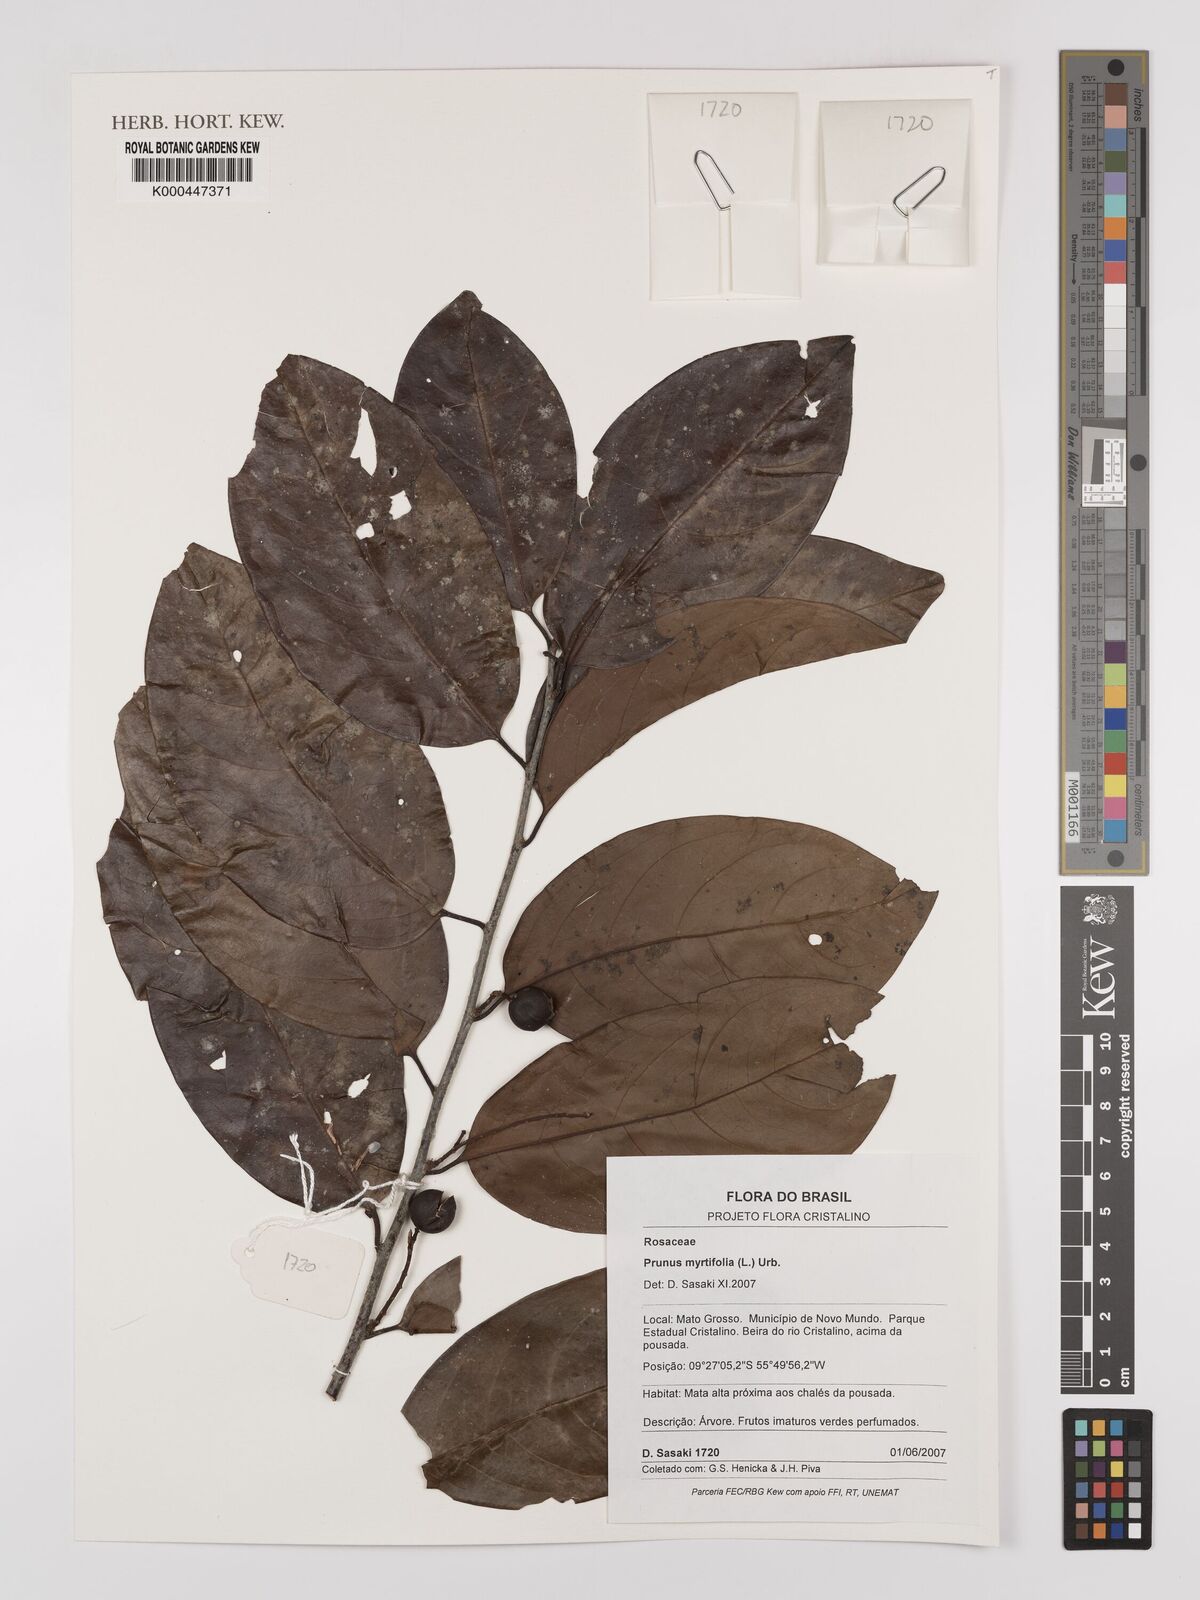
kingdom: Plantae
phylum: Tracheophyta
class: Magnoliopsida
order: Rosales
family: Rosaceae
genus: Prunus
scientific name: Prunus myrtifolia
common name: West indies cherry
